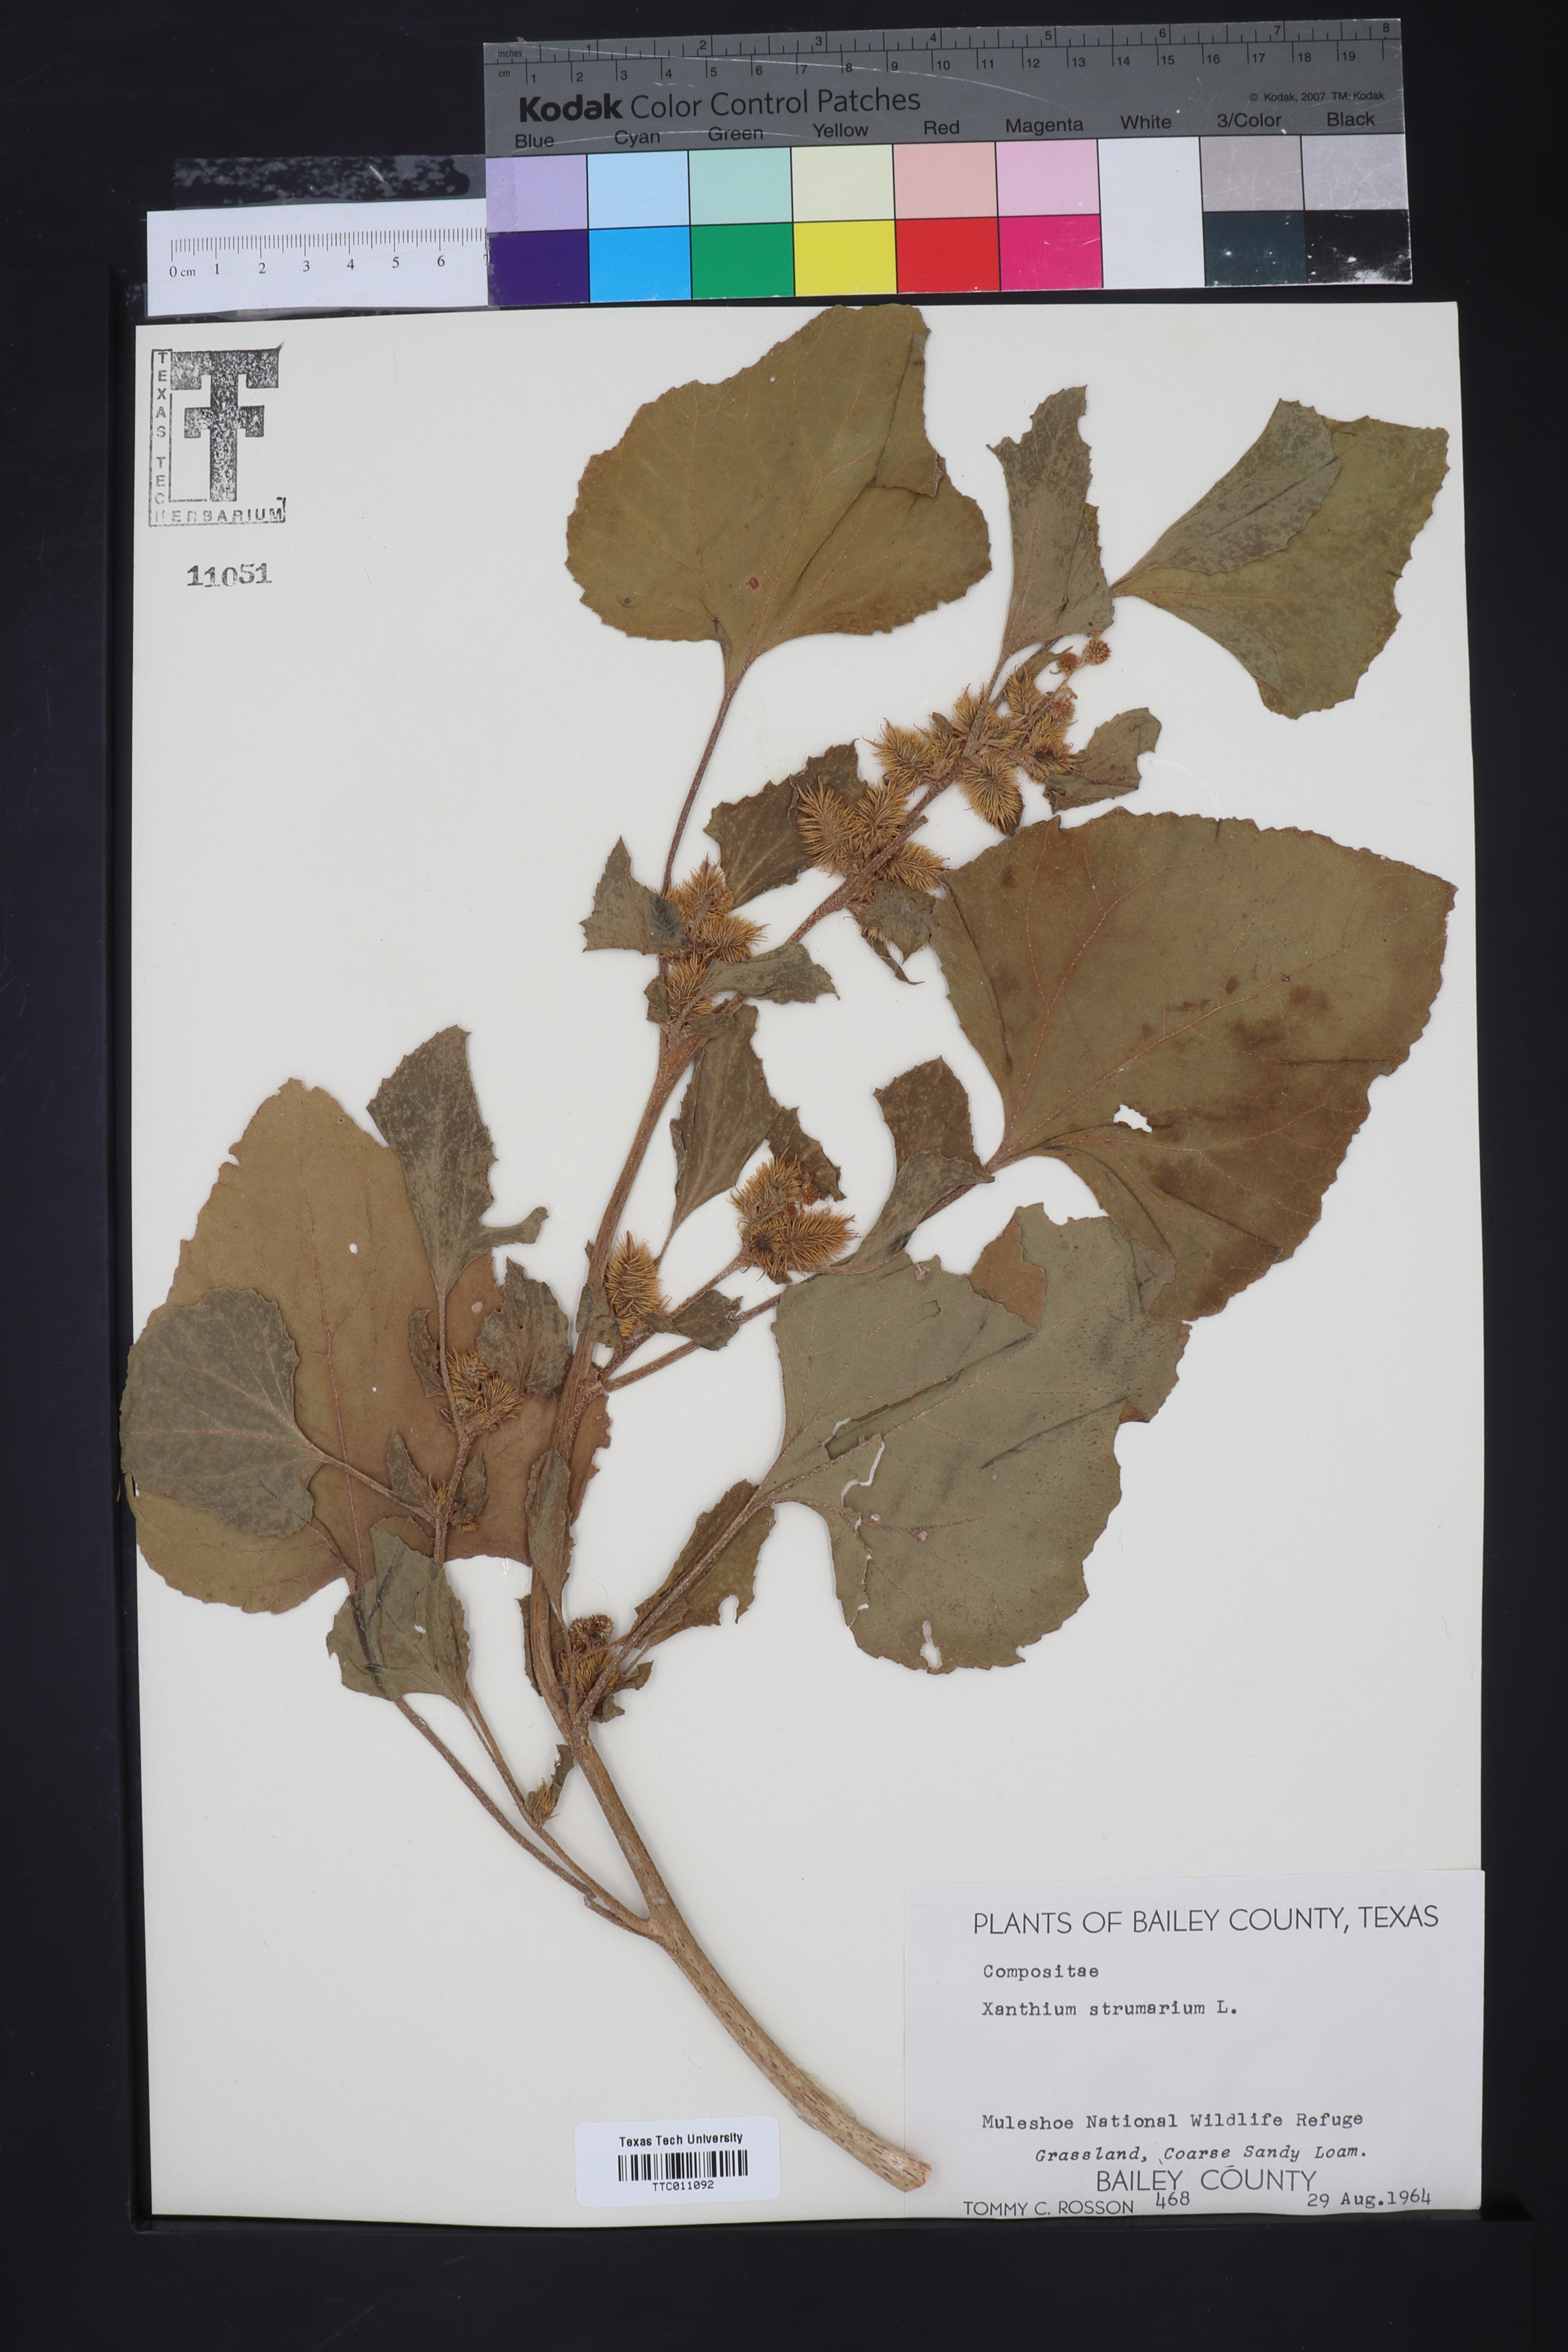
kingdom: Plantae
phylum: Tracheophyta
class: Magnoliopsida
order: Asterales
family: Asteraceae
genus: Xanthium
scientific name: Xanthium strumarium
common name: Rough cocklebur
